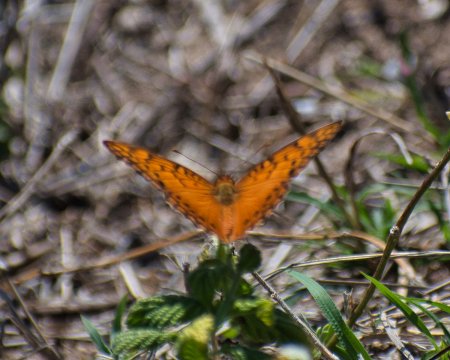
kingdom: Animalia
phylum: Arthropoda
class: Insecta
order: Lepidoptera
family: Nymphalidae
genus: Euptoieta
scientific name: Euptoieta hegesia
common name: Mexican Fritillary
